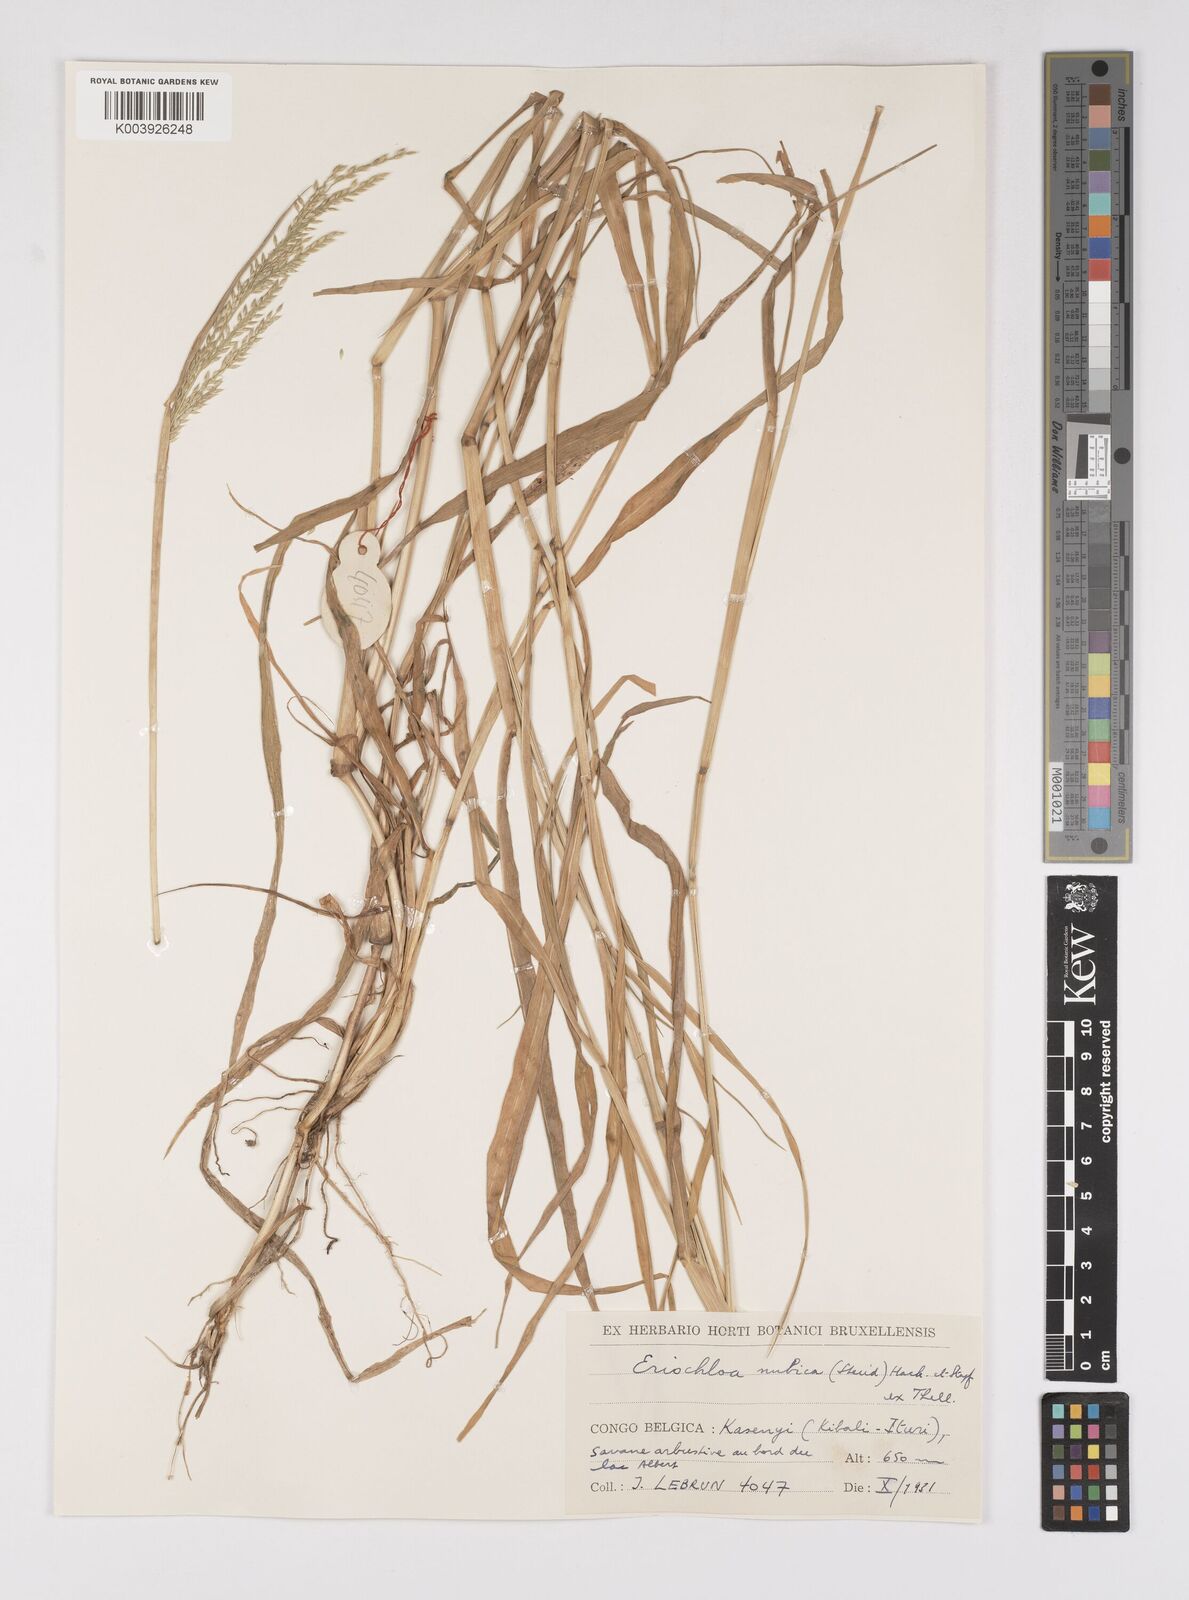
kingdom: Plantae
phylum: Tracheophyta
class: Liliopsida
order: Poales
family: Poaceae
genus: Eriochloa
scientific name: Eriochloa barbatus
